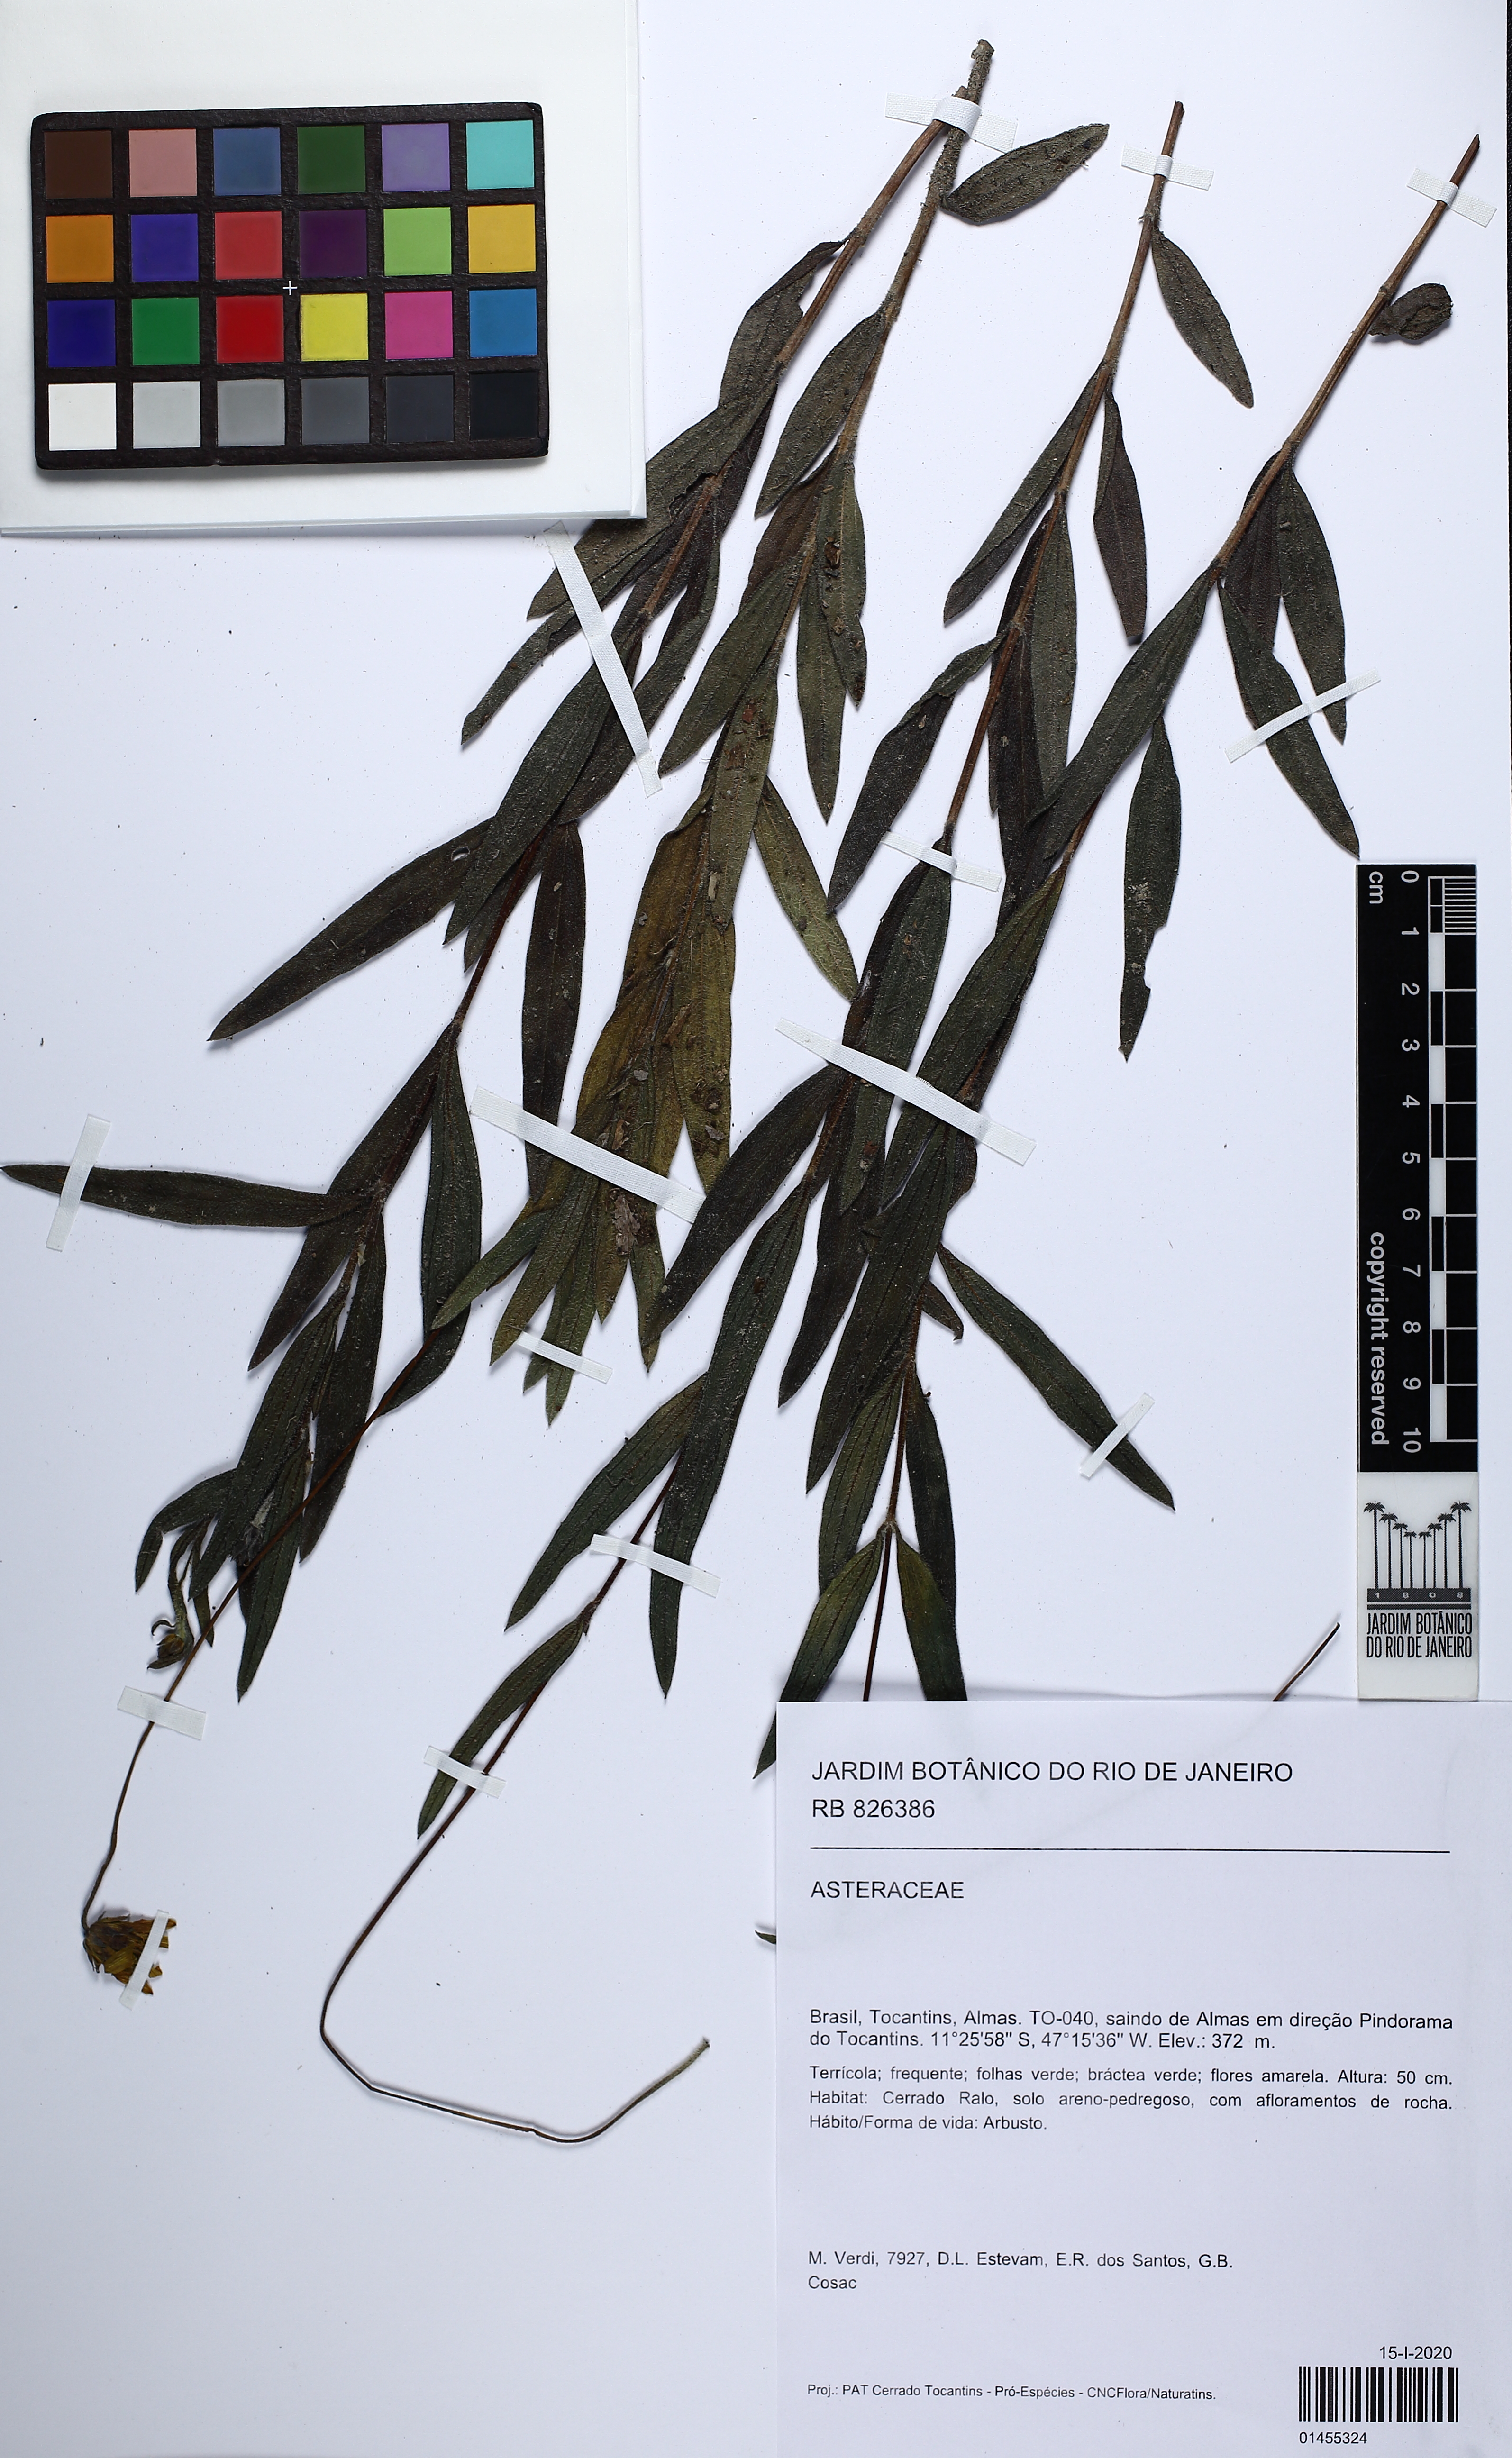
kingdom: Plantae
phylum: Tracheophyta
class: Magnoliopsida
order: Asterales
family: Asteraceae
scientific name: Asteraceae
